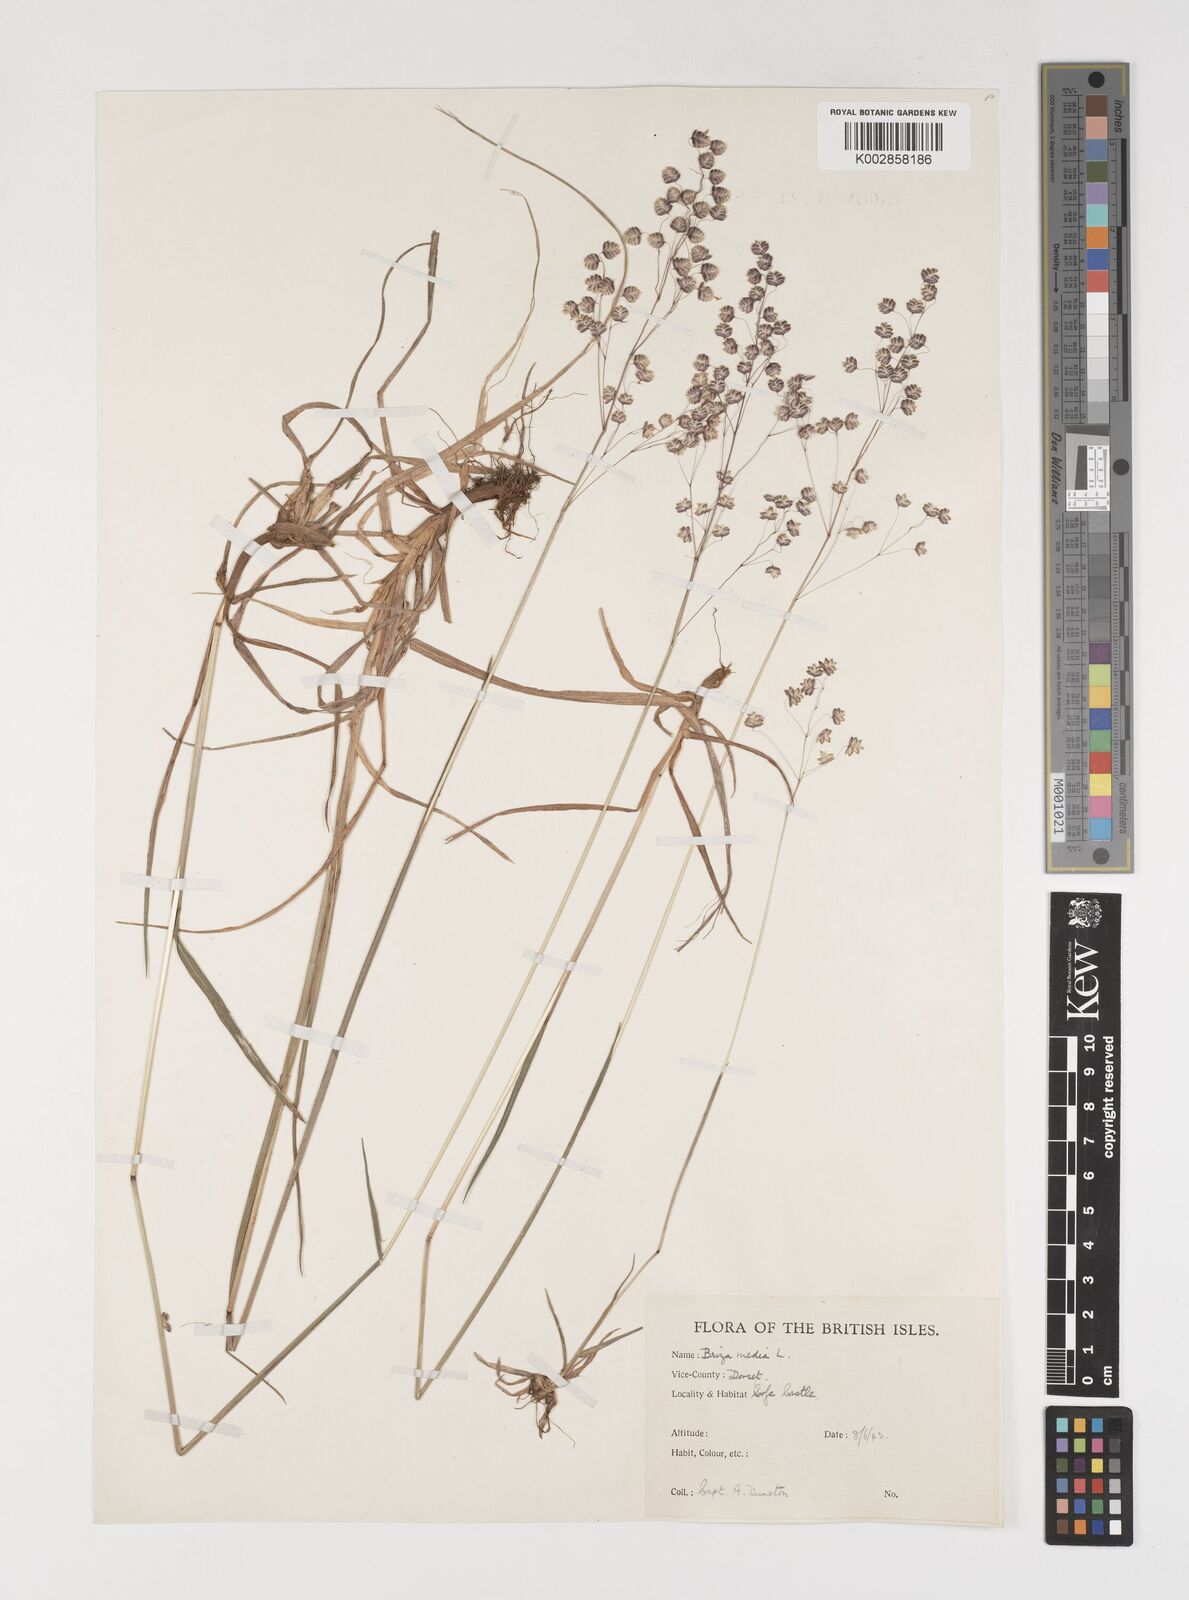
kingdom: Plantae
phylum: Tracheophyta
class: Liliopsida
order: Poales
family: Poaceae
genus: Briza
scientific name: Briza media
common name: Quaking grass
